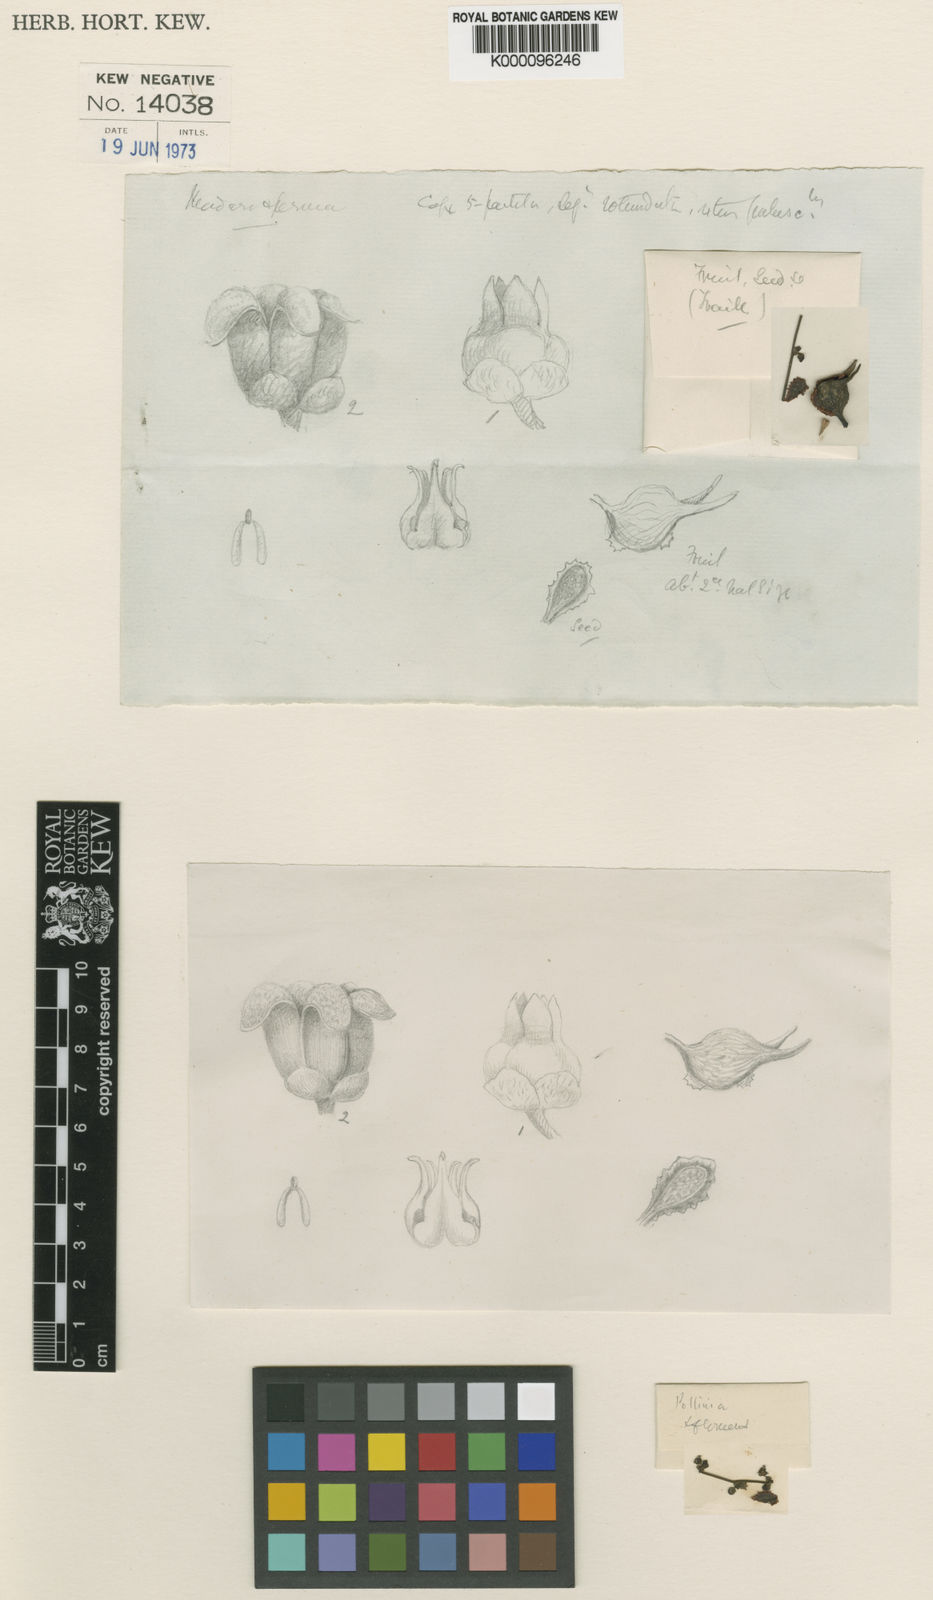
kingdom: Plantae
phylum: Tracheophyta
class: Magnoliopsida
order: Gentianales
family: Apocynaceae
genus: Tassadia
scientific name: Tassadia trailiana
